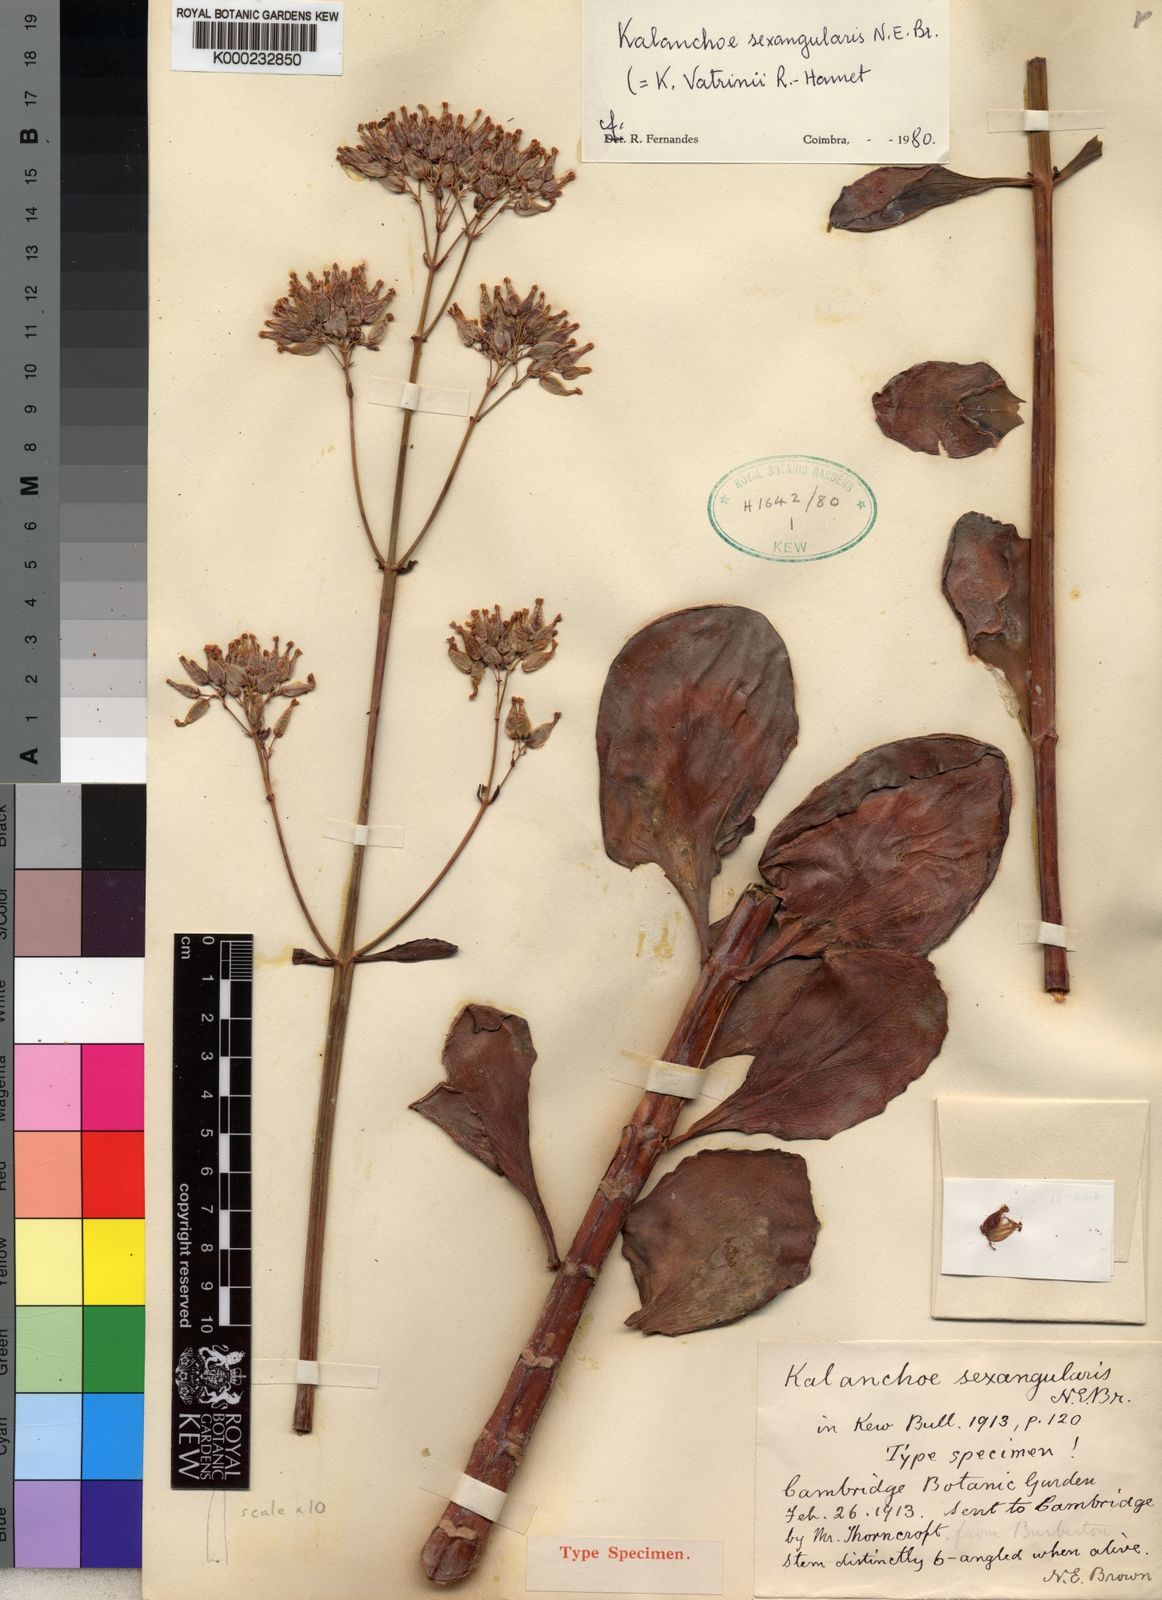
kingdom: Plantae
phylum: Tracheophyta
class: Magnoliopsida
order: Saxifragales
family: Crassulaceae
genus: Kalanchoe
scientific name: Kalanchoe sexangularis
